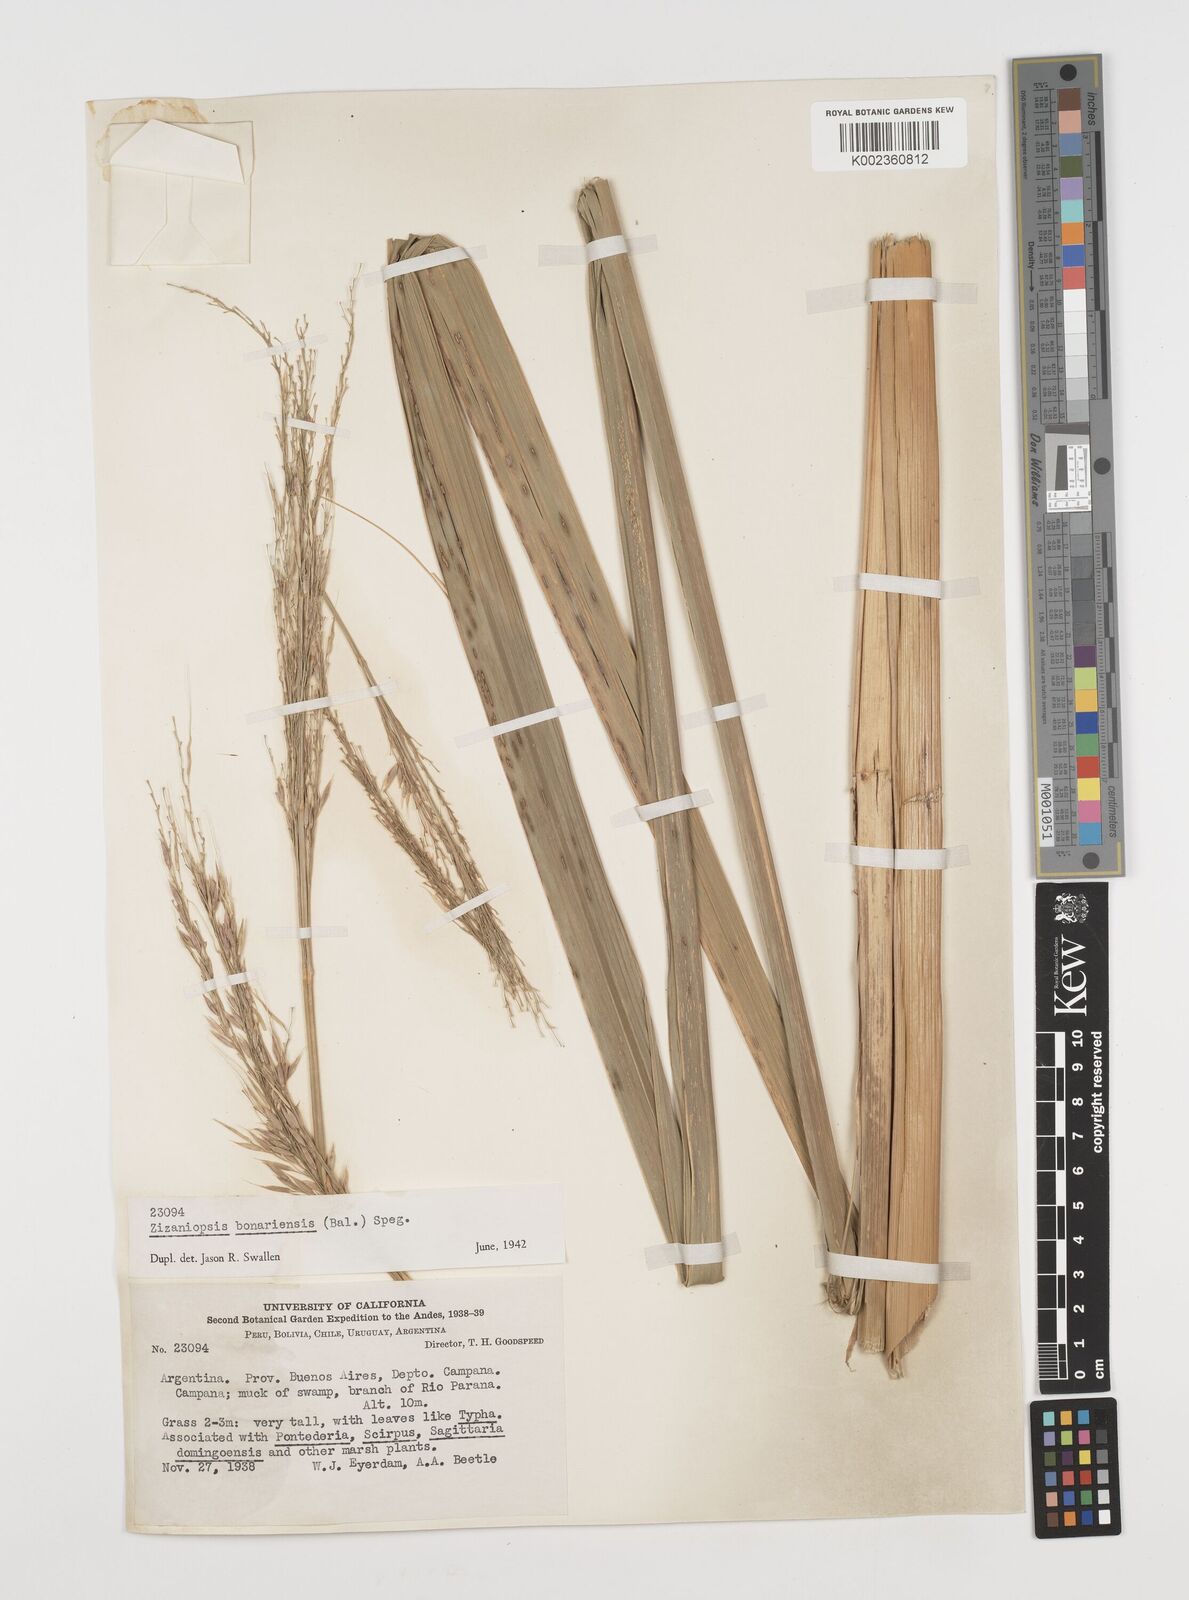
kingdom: Plantae
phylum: Tracheophyta
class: Liliopsida
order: Poales
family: Poaceae
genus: Zizaniopsis
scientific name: Zizaniopsis bonariensis
